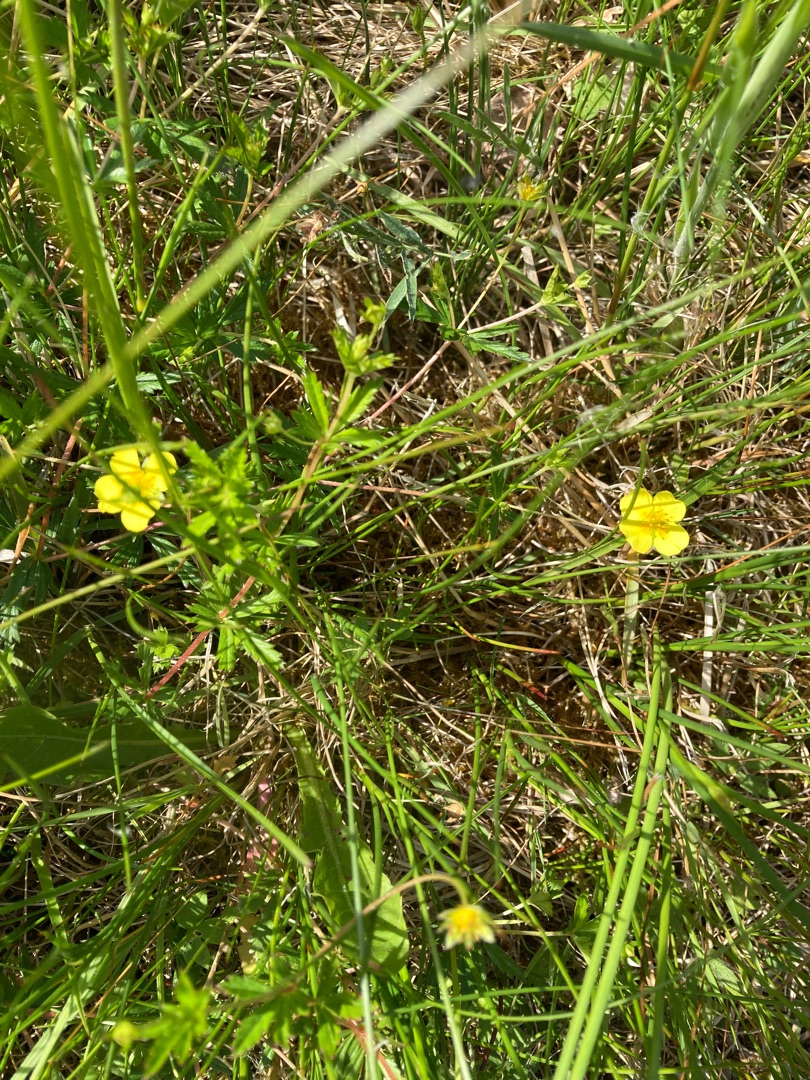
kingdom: Plantae
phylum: Tracheophyta
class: Magnoliopsida
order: Rosales
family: Rosaceae
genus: Potentilla
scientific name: Potentilla erecta
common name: Tormentil
